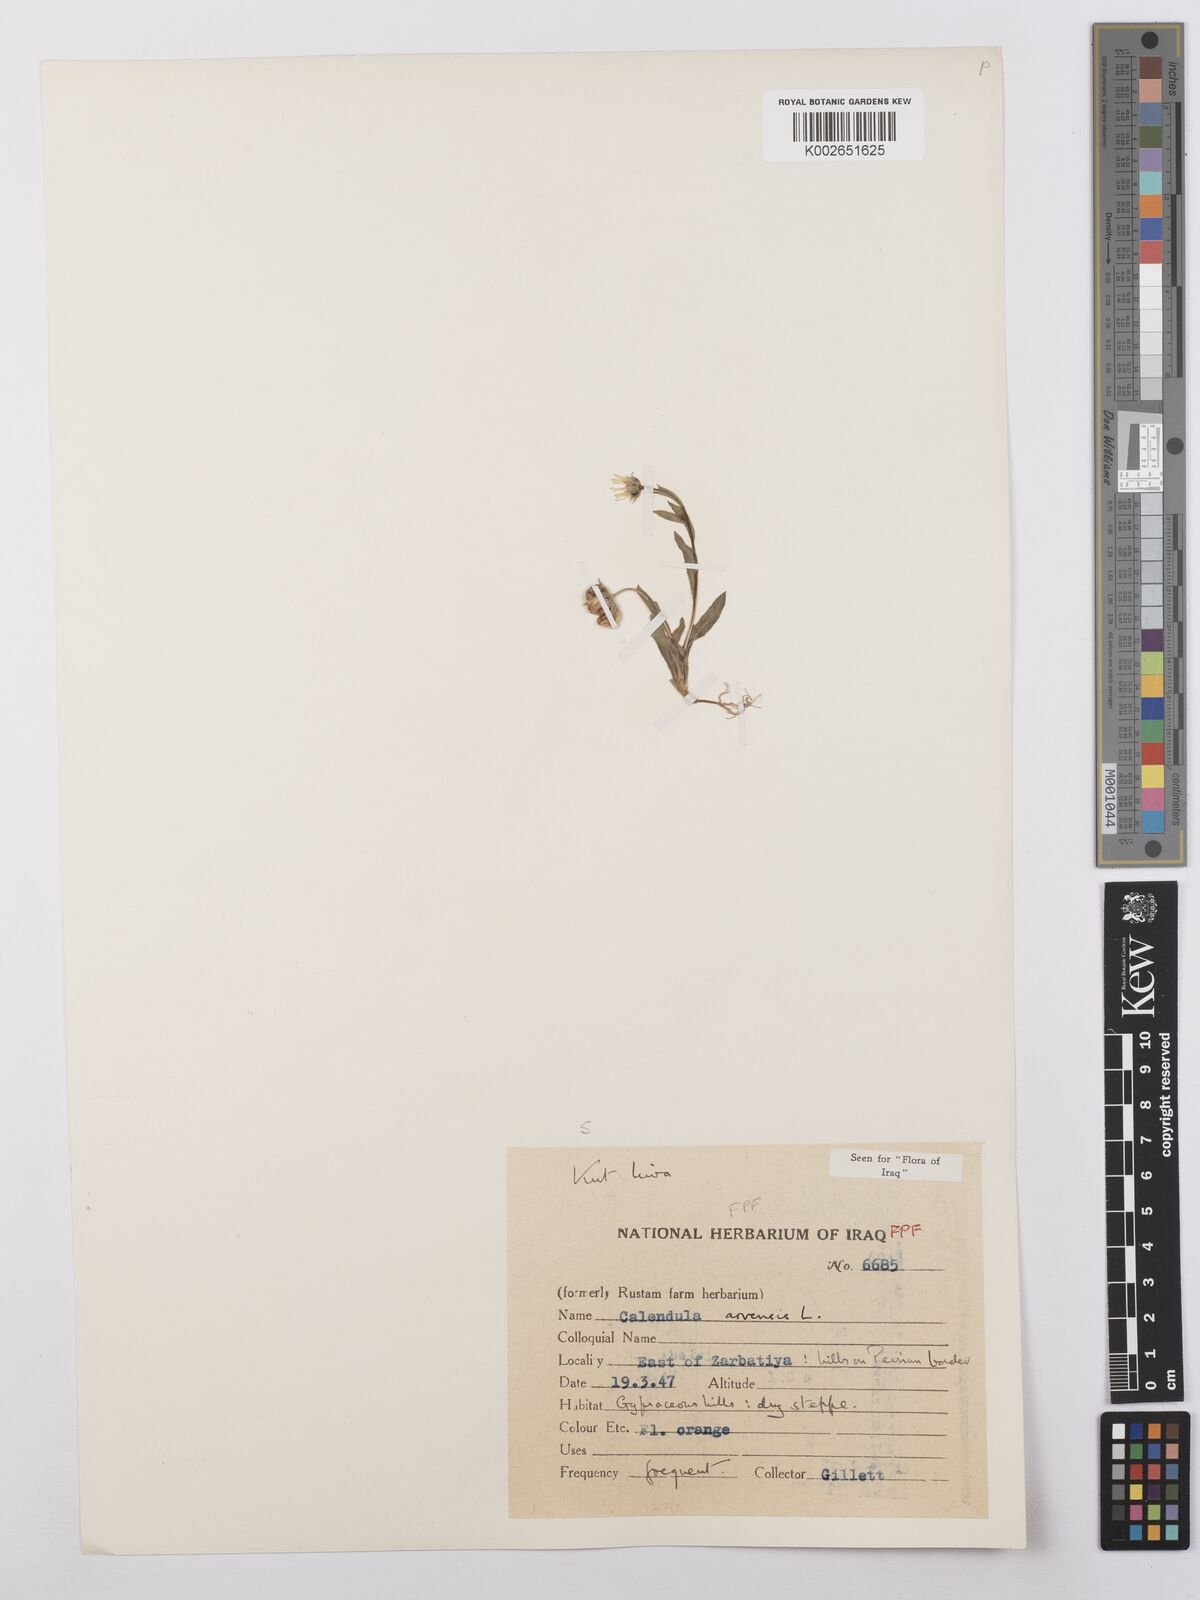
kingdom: Plantae
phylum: Tracheophyta
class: Magnoliopsida
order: Asterales
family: Asteraceae
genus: Calendula
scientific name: Calendula arvensis
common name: Field marigold
